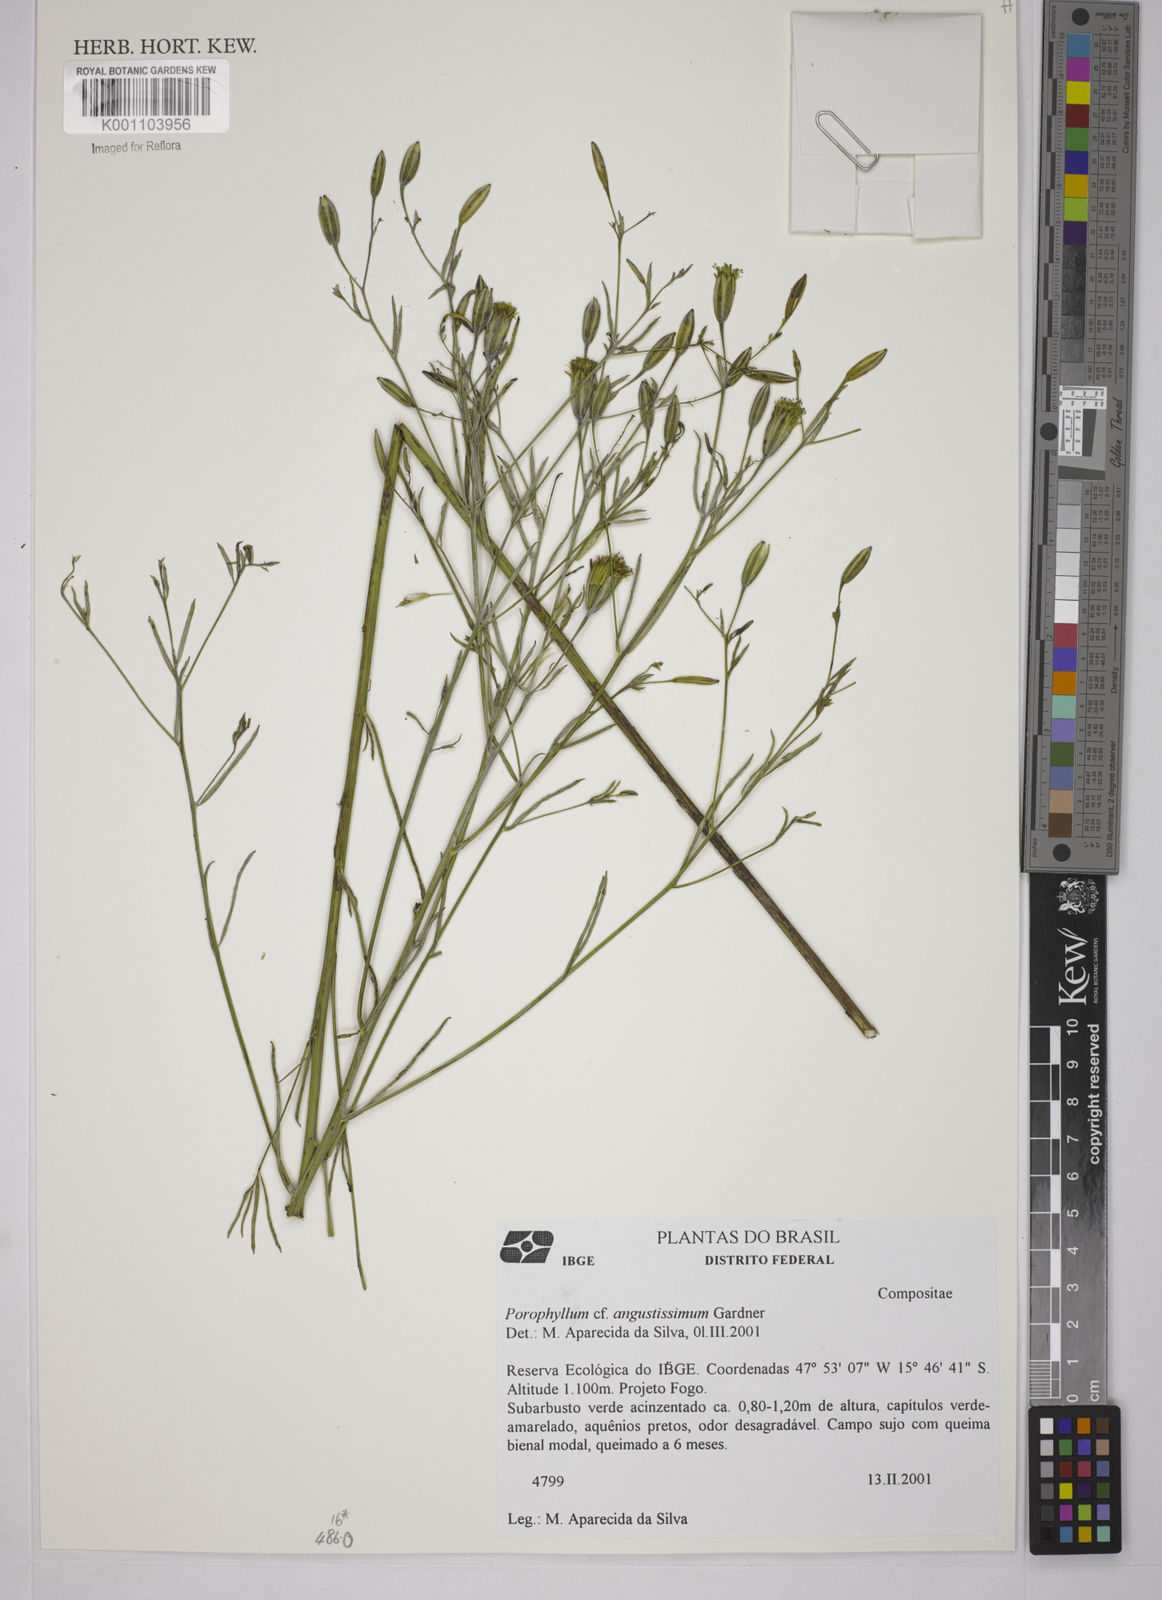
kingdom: Plantae
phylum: Tracheophyta
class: Magnoliopsida
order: Asterales
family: Asteraceae
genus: Porophyllum
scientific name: Porophyllum angustissimum
